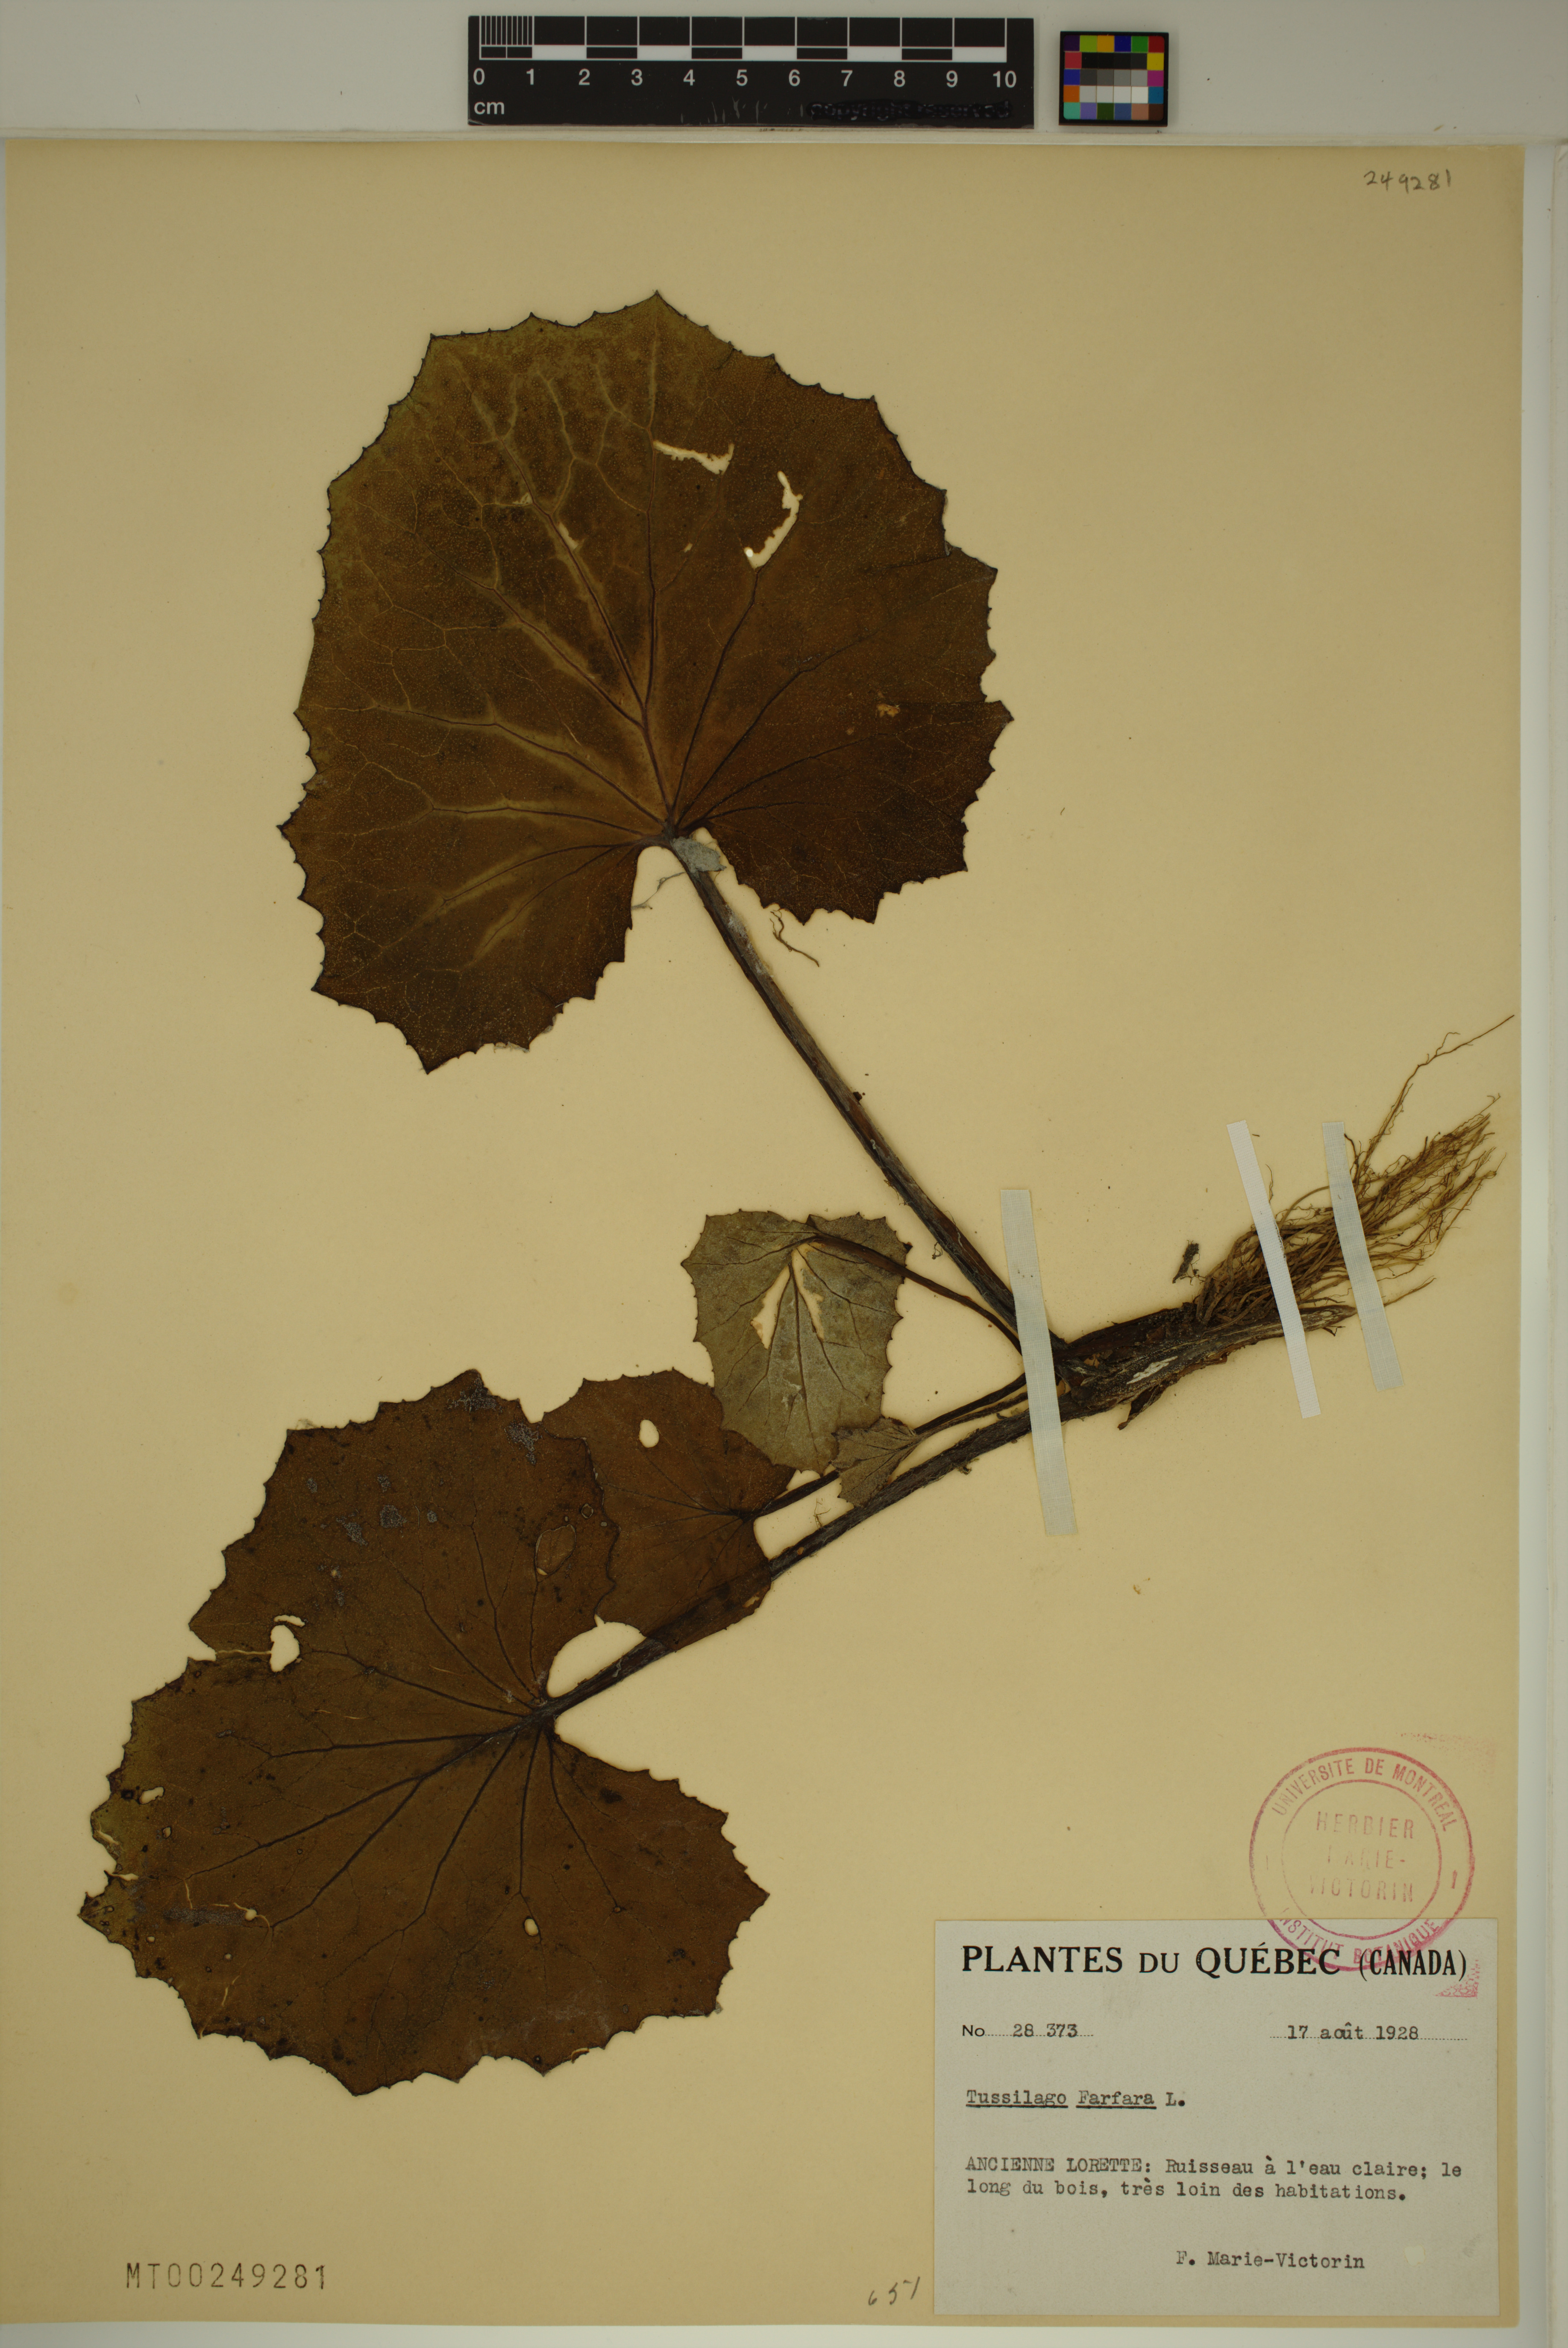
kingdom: Plantae
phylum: Tracheophyta
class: Magnoliopsida
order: Asterales
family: Asteraceae
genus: Tussilago
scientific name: Tussilago farfara
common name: Coltsfoot
